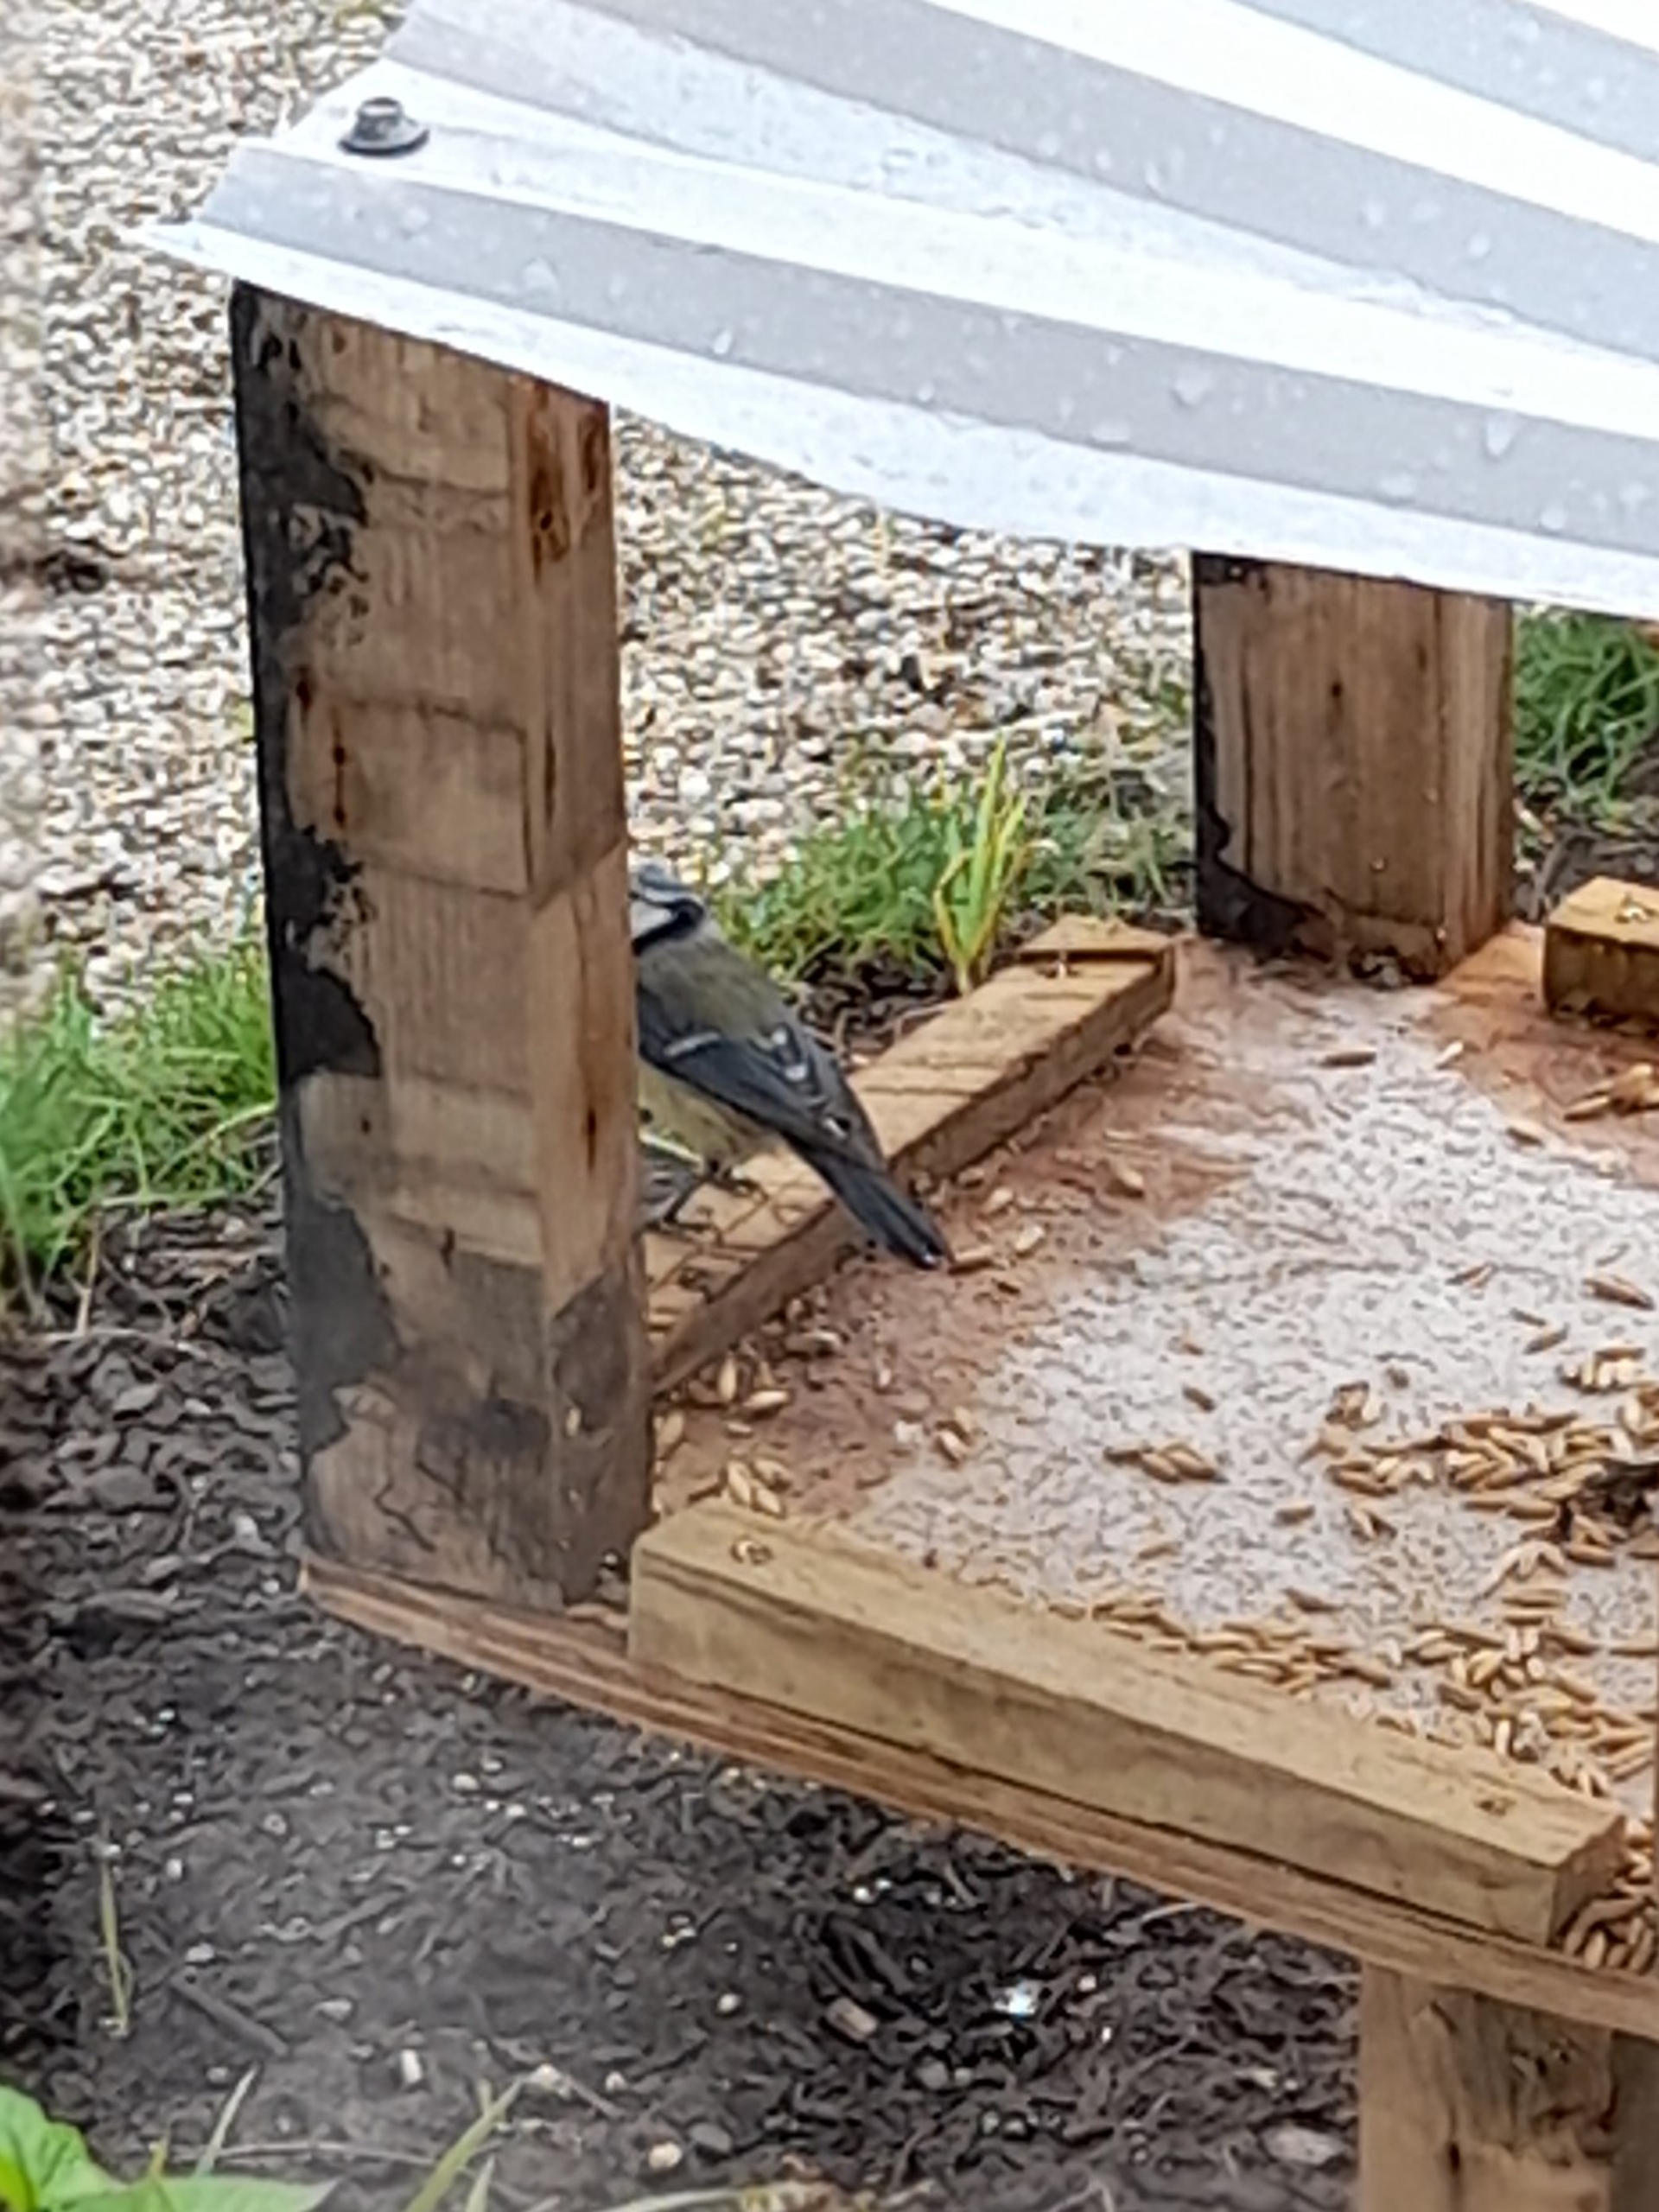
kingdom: Animalia
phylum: Chordata
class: Aves
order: Passeriformes
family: Paridae
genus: Cyanistes
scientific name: Cyanistes caeruleus
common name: Blåmejse
